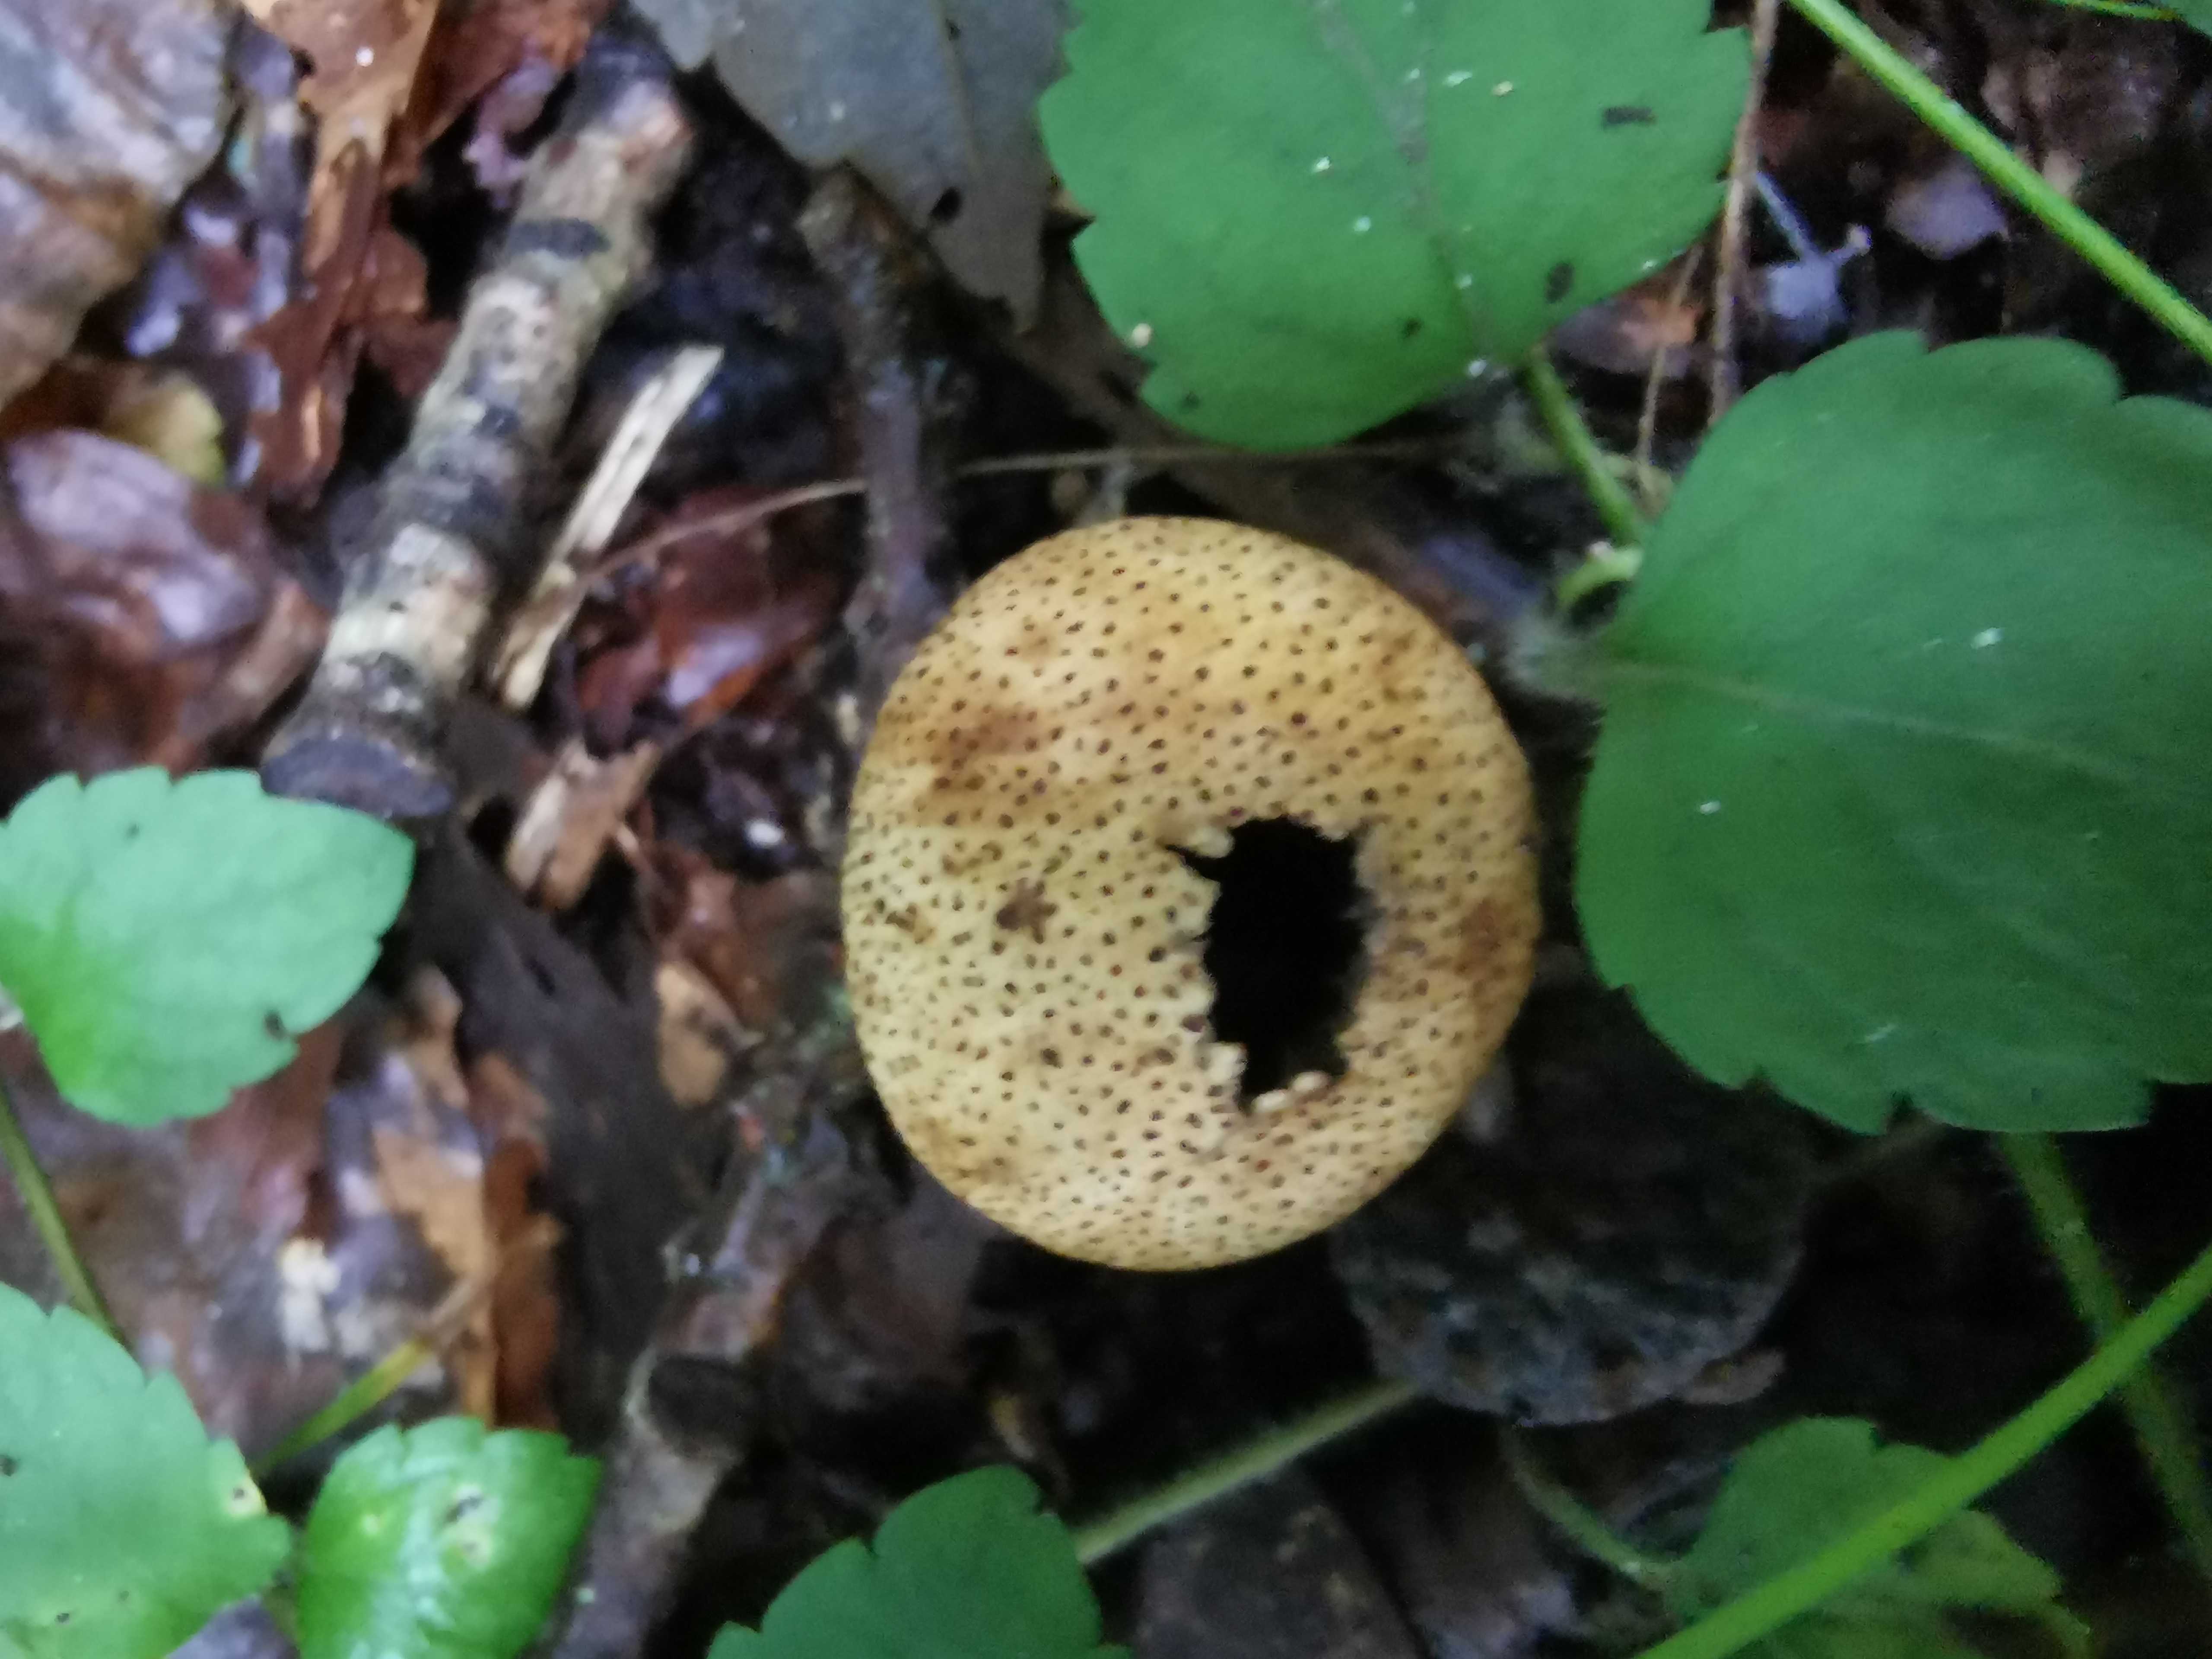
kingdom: Fungi
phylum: Basidiomycota
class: Agaricomycetes
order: Boletales
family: Sclerodermataceae
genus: Scleroderma
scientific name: Scleroderma areolatum
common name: plettet bruskbold
